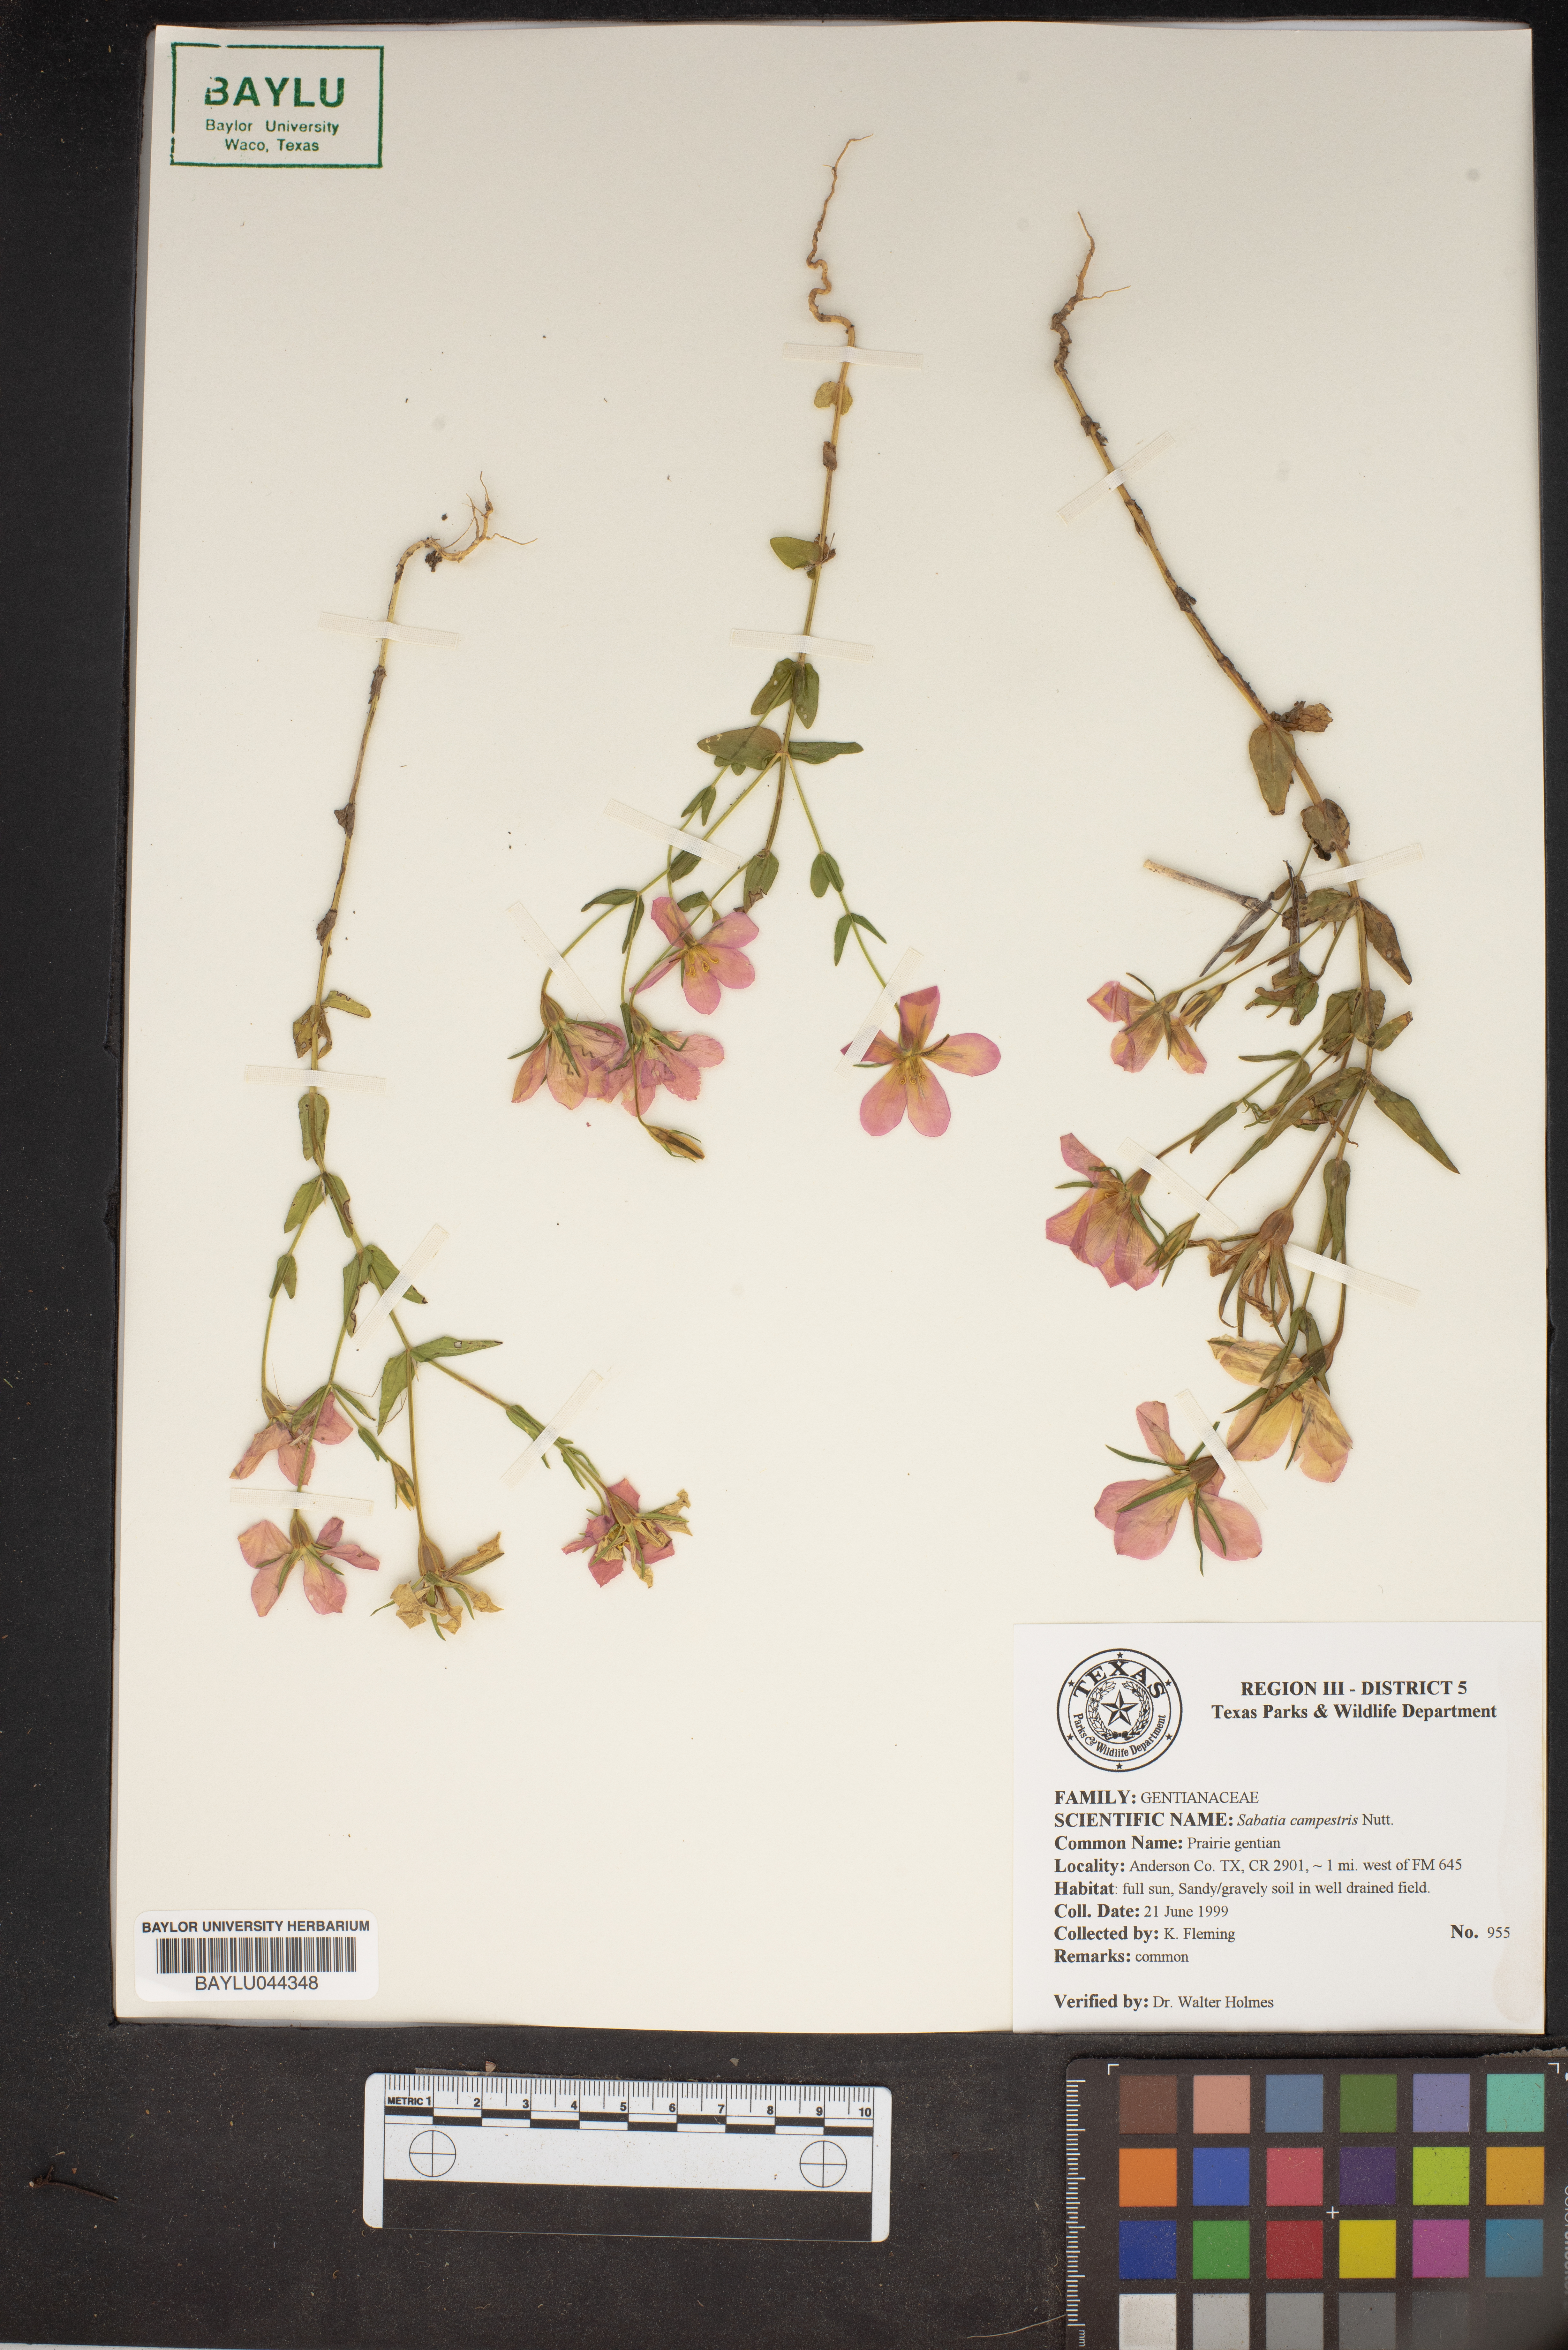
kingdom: Plantae
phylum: Tracheophyta
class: Magnoliopsida
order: Gentianales
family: Gentianaceae
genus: Sabatia
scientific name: Sabatia campestris
